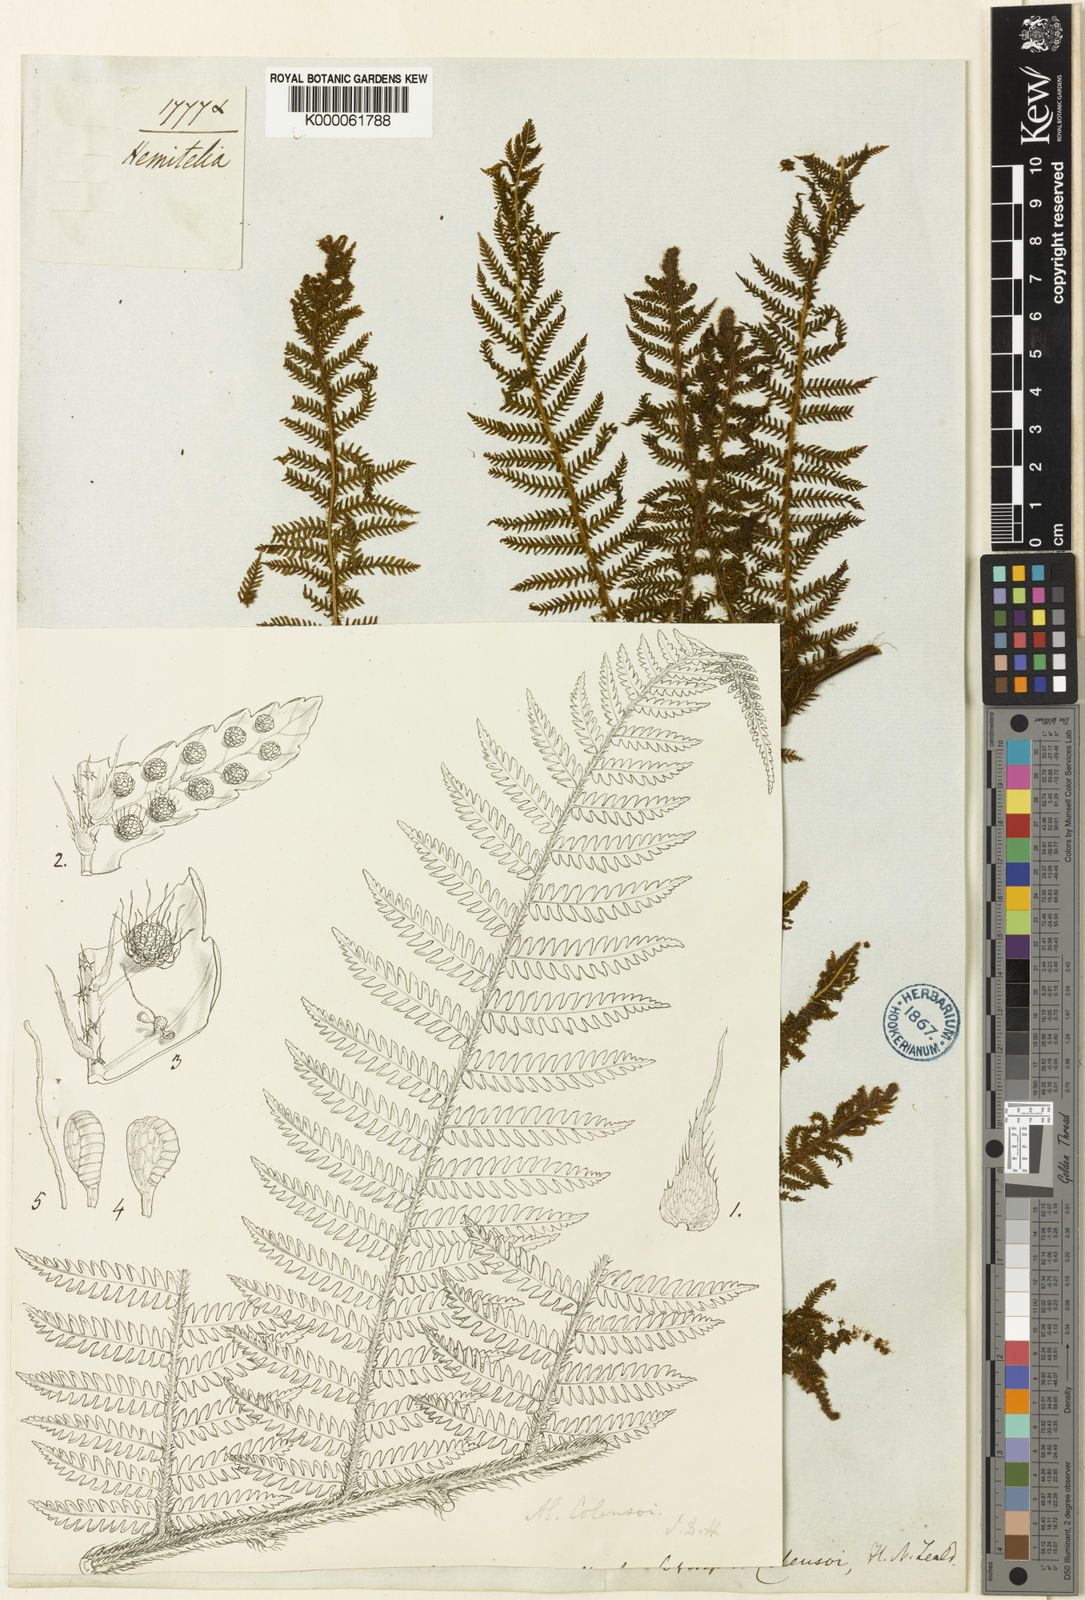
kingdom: Plantae
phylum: Tracheophyta
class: Polypodiopsida
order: Cyatheales
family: Cyatheaceae
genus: Alsophila
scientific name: Alsophila colensoi
